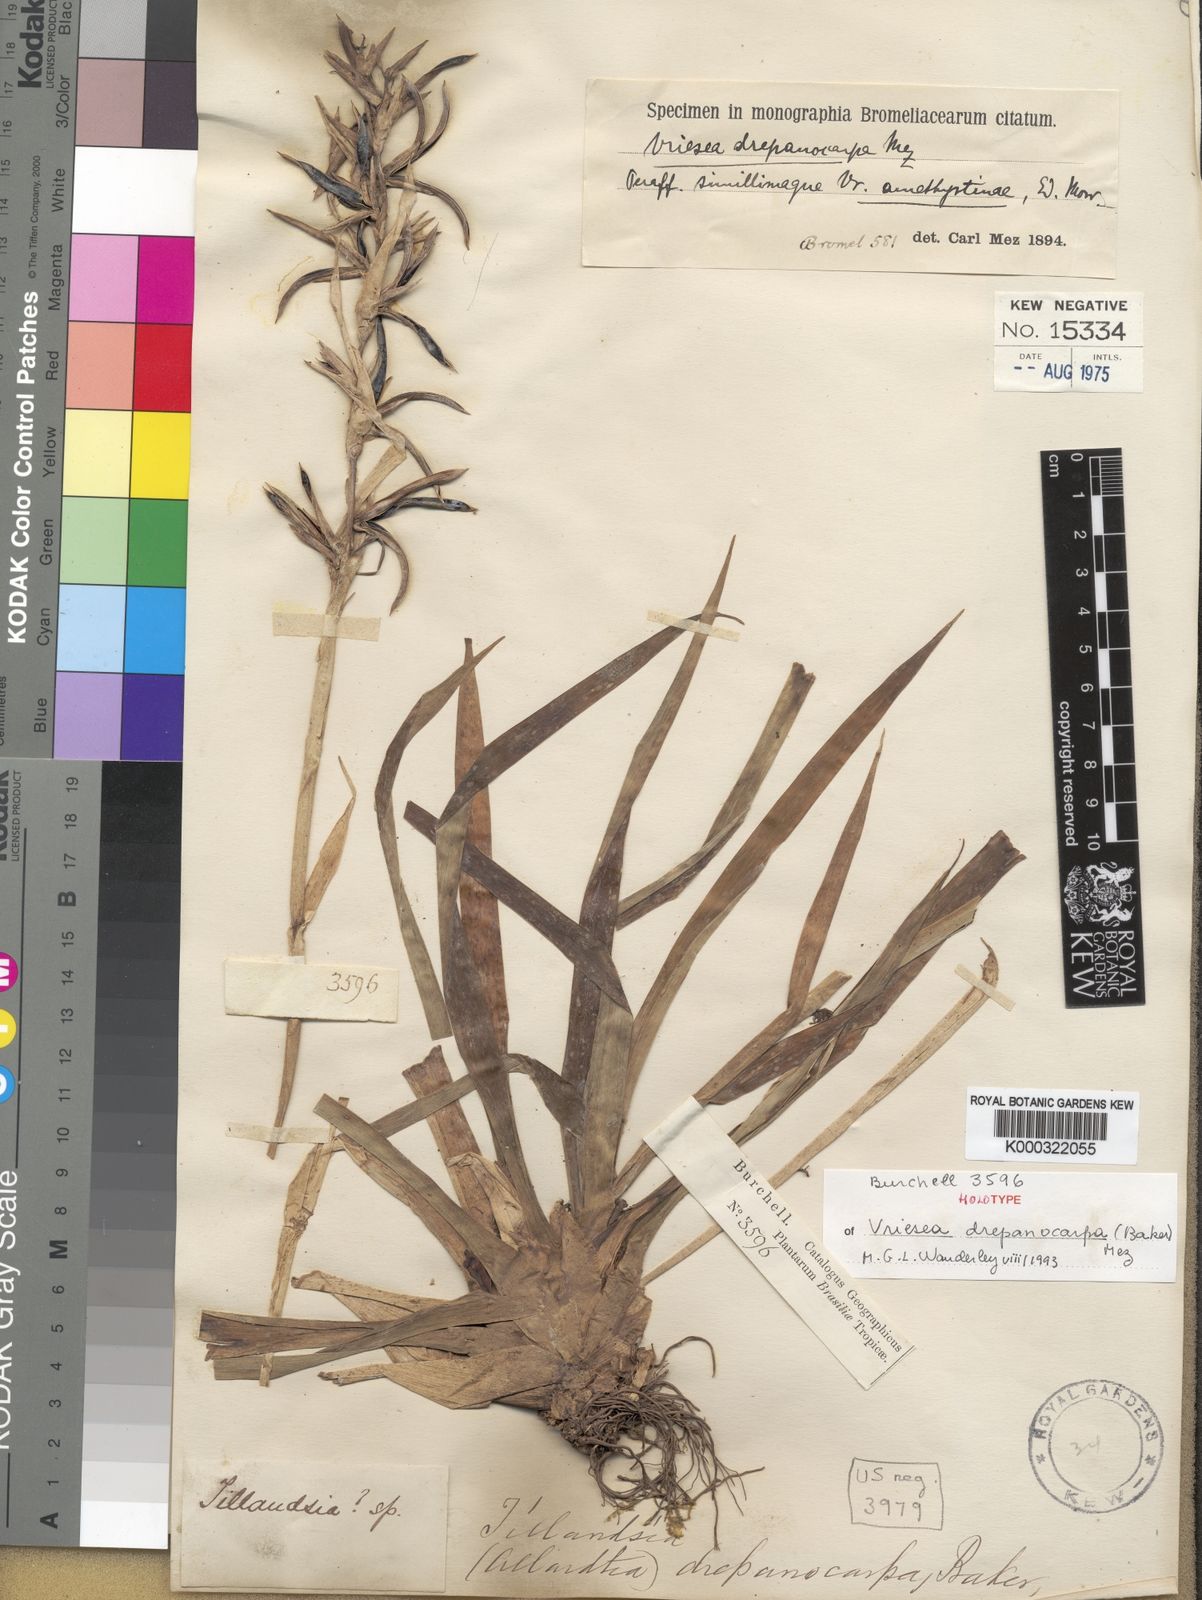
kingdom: Plantae
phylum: Tracheophyta
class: Liliopsida
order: Poales
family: Bromeliaceae
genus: Vriesea
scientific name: Vriesea drepanocarpa
